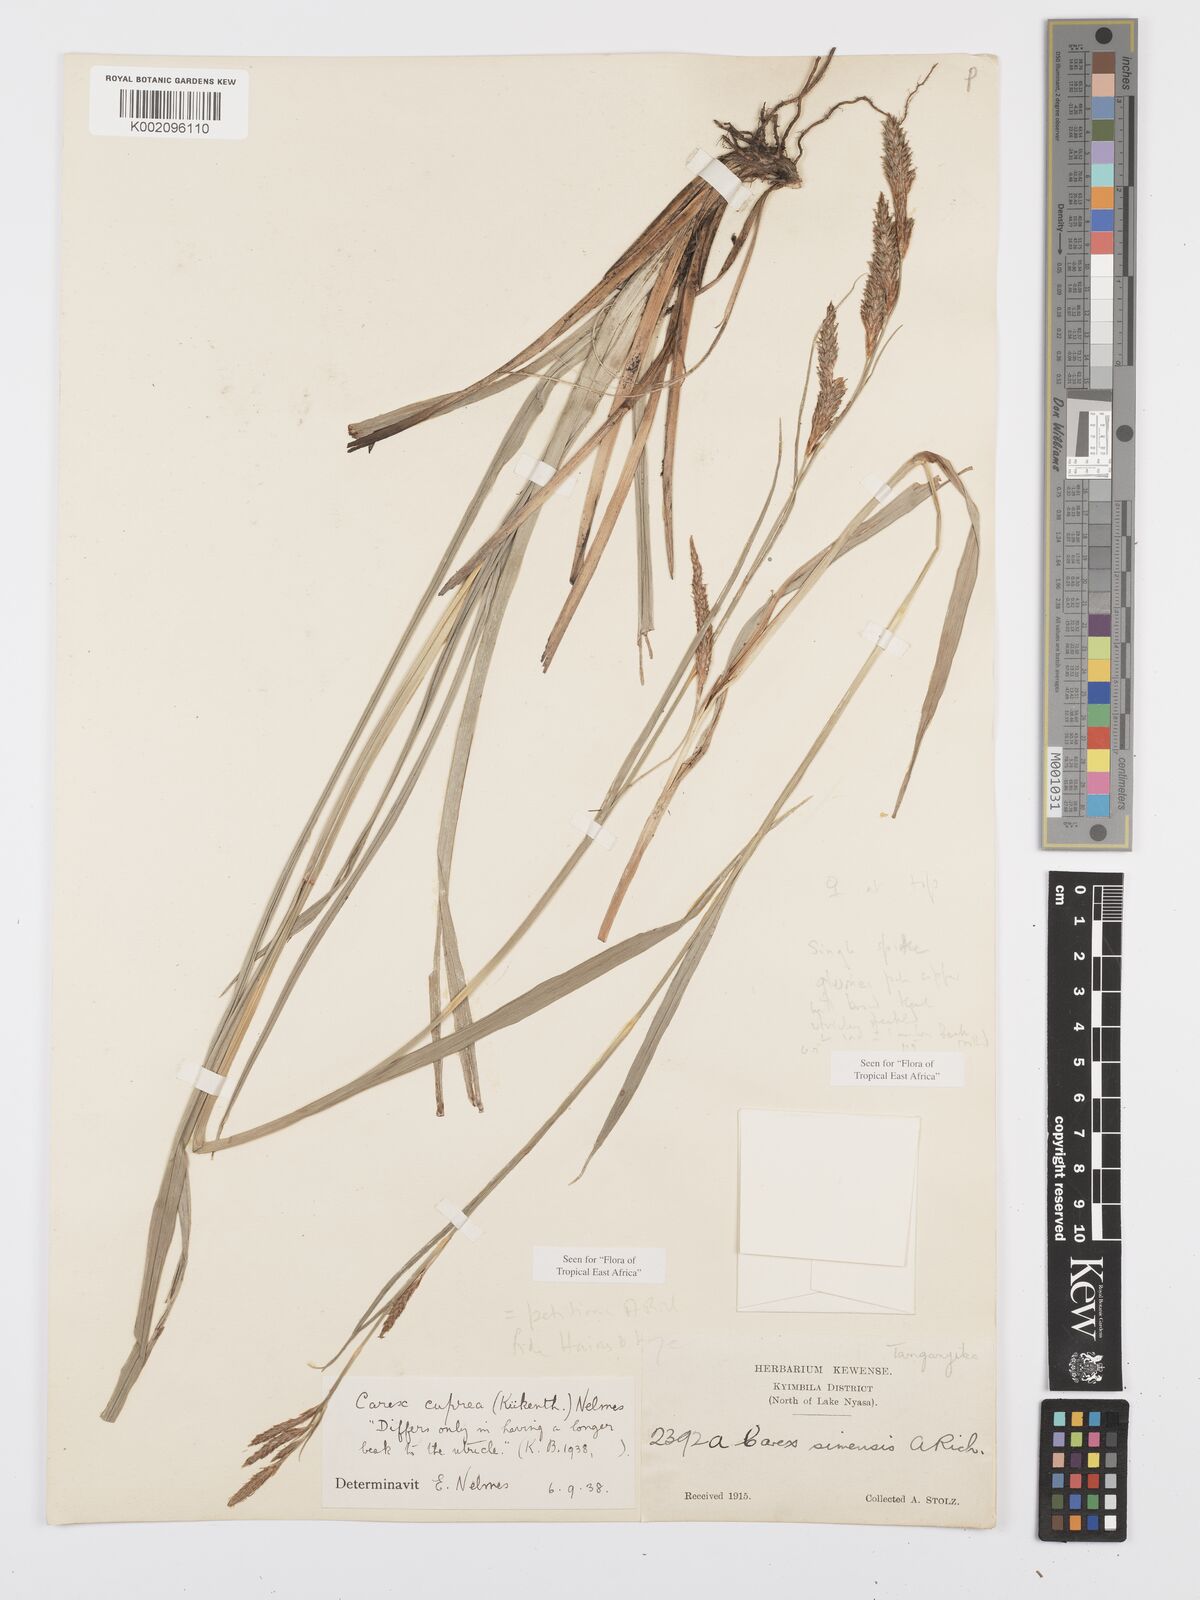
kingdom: Plantae
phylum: Tracheophyta
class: Liliopsida
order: Poales
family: Cyperaceae
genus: Carex
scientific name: Carex petitiana
